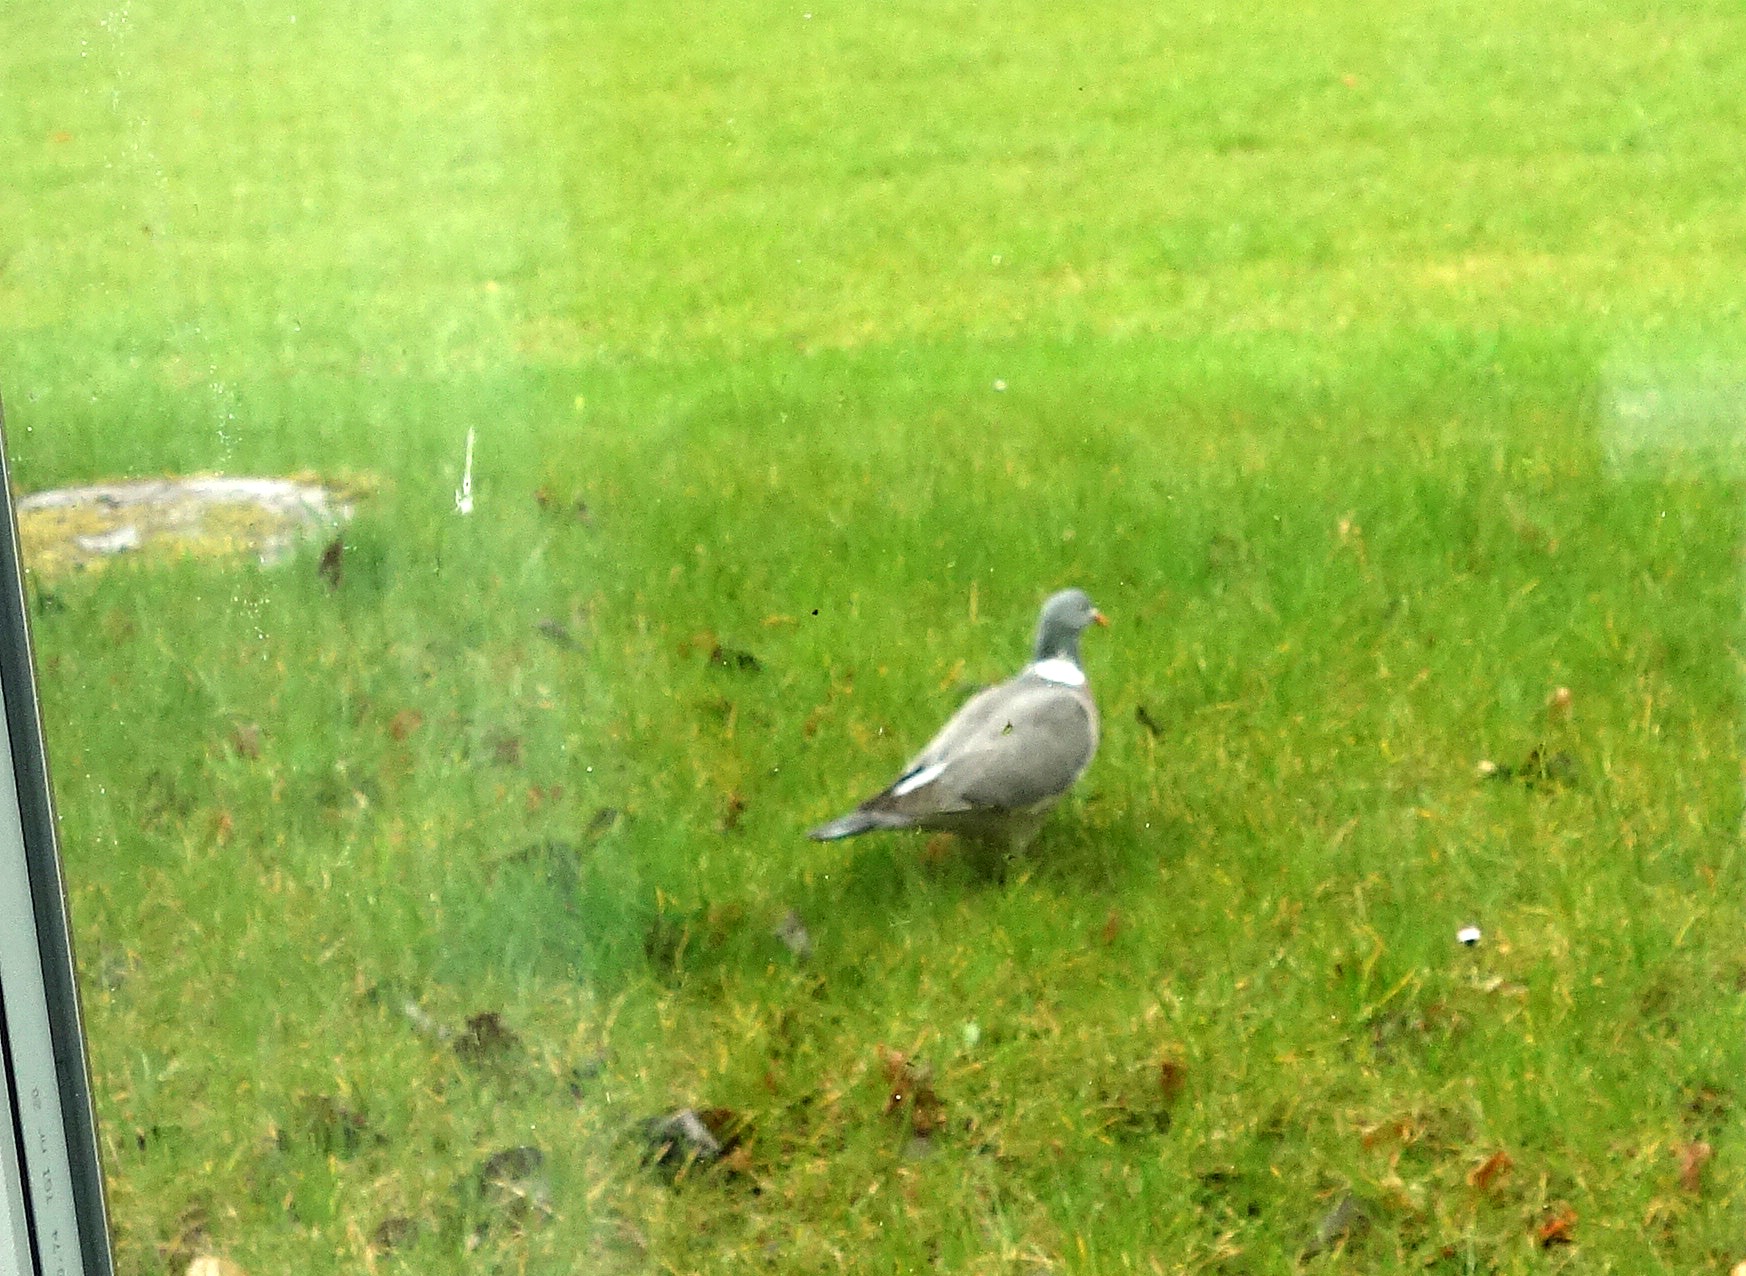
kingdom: Animalia
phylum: Chordata
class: Aves
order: Columbiformes
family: Columbidae
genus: Columba
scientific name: Columba palumbus
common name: Ringdue
